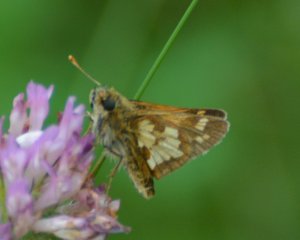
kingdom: Animalia
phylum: Arthropoda
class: Insecta
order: Lepidoptera
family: Hesperiidae
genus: Polites
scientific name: Polites coras
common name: Peck's Skipper
